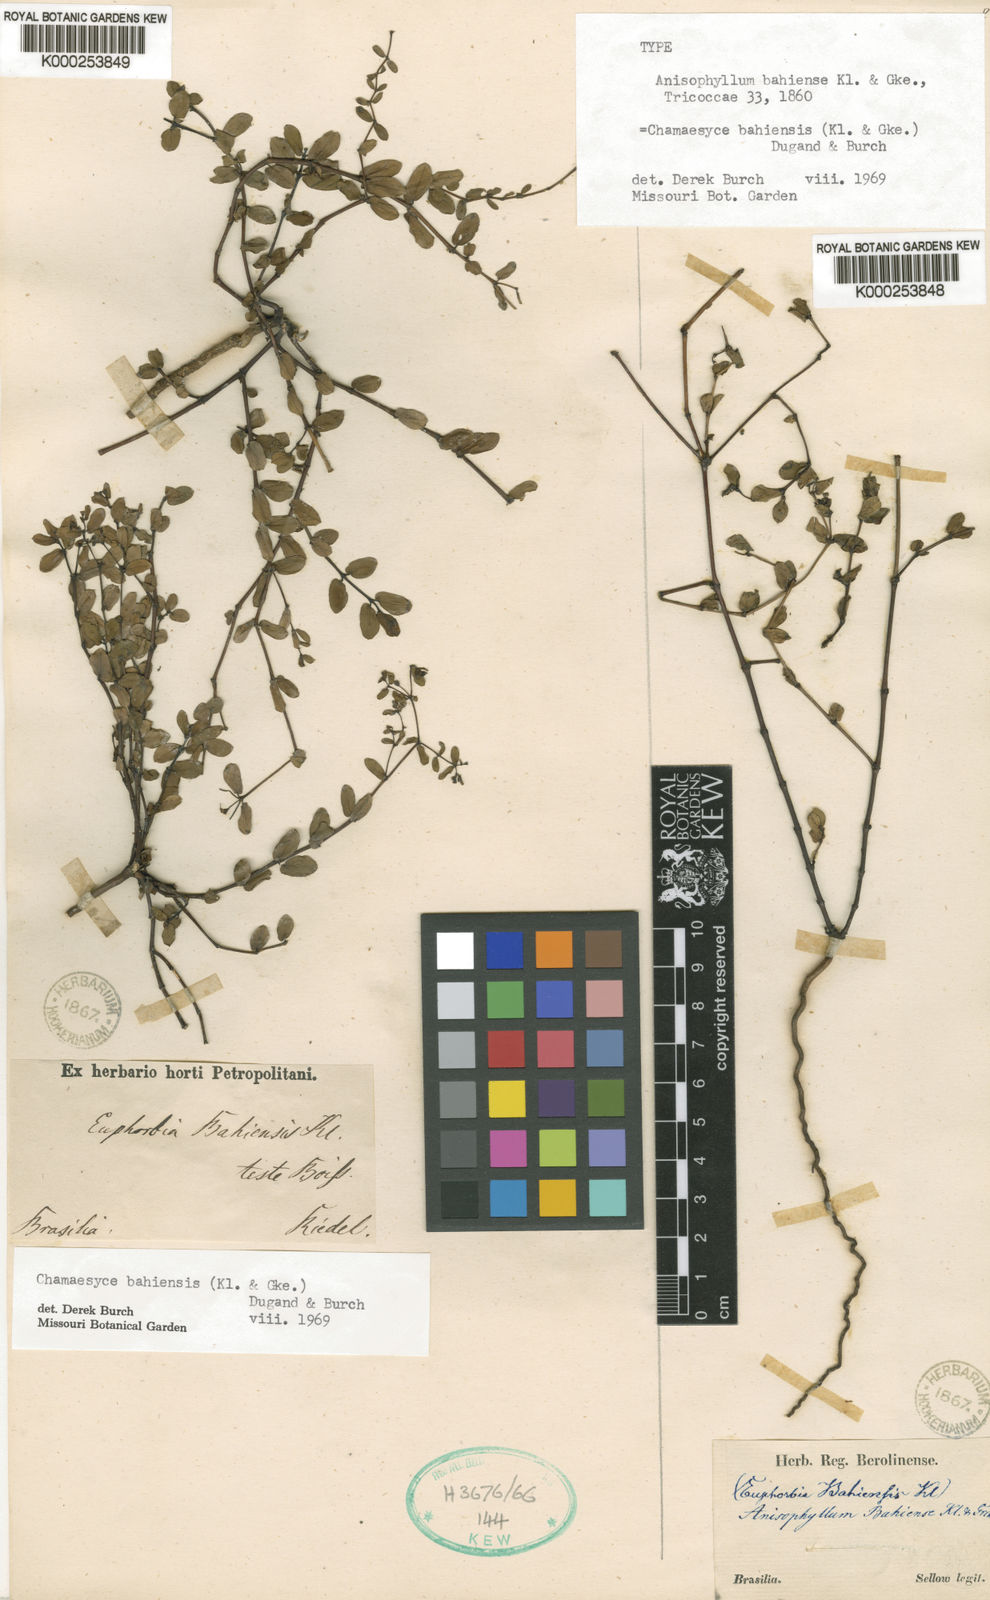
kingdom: Plantae
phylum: Tracheophyta
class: Magnoliopsida
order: Malpighiales
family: Euphorbiaceae
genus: Euphorbia
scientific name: Euphorbia bahiensis
